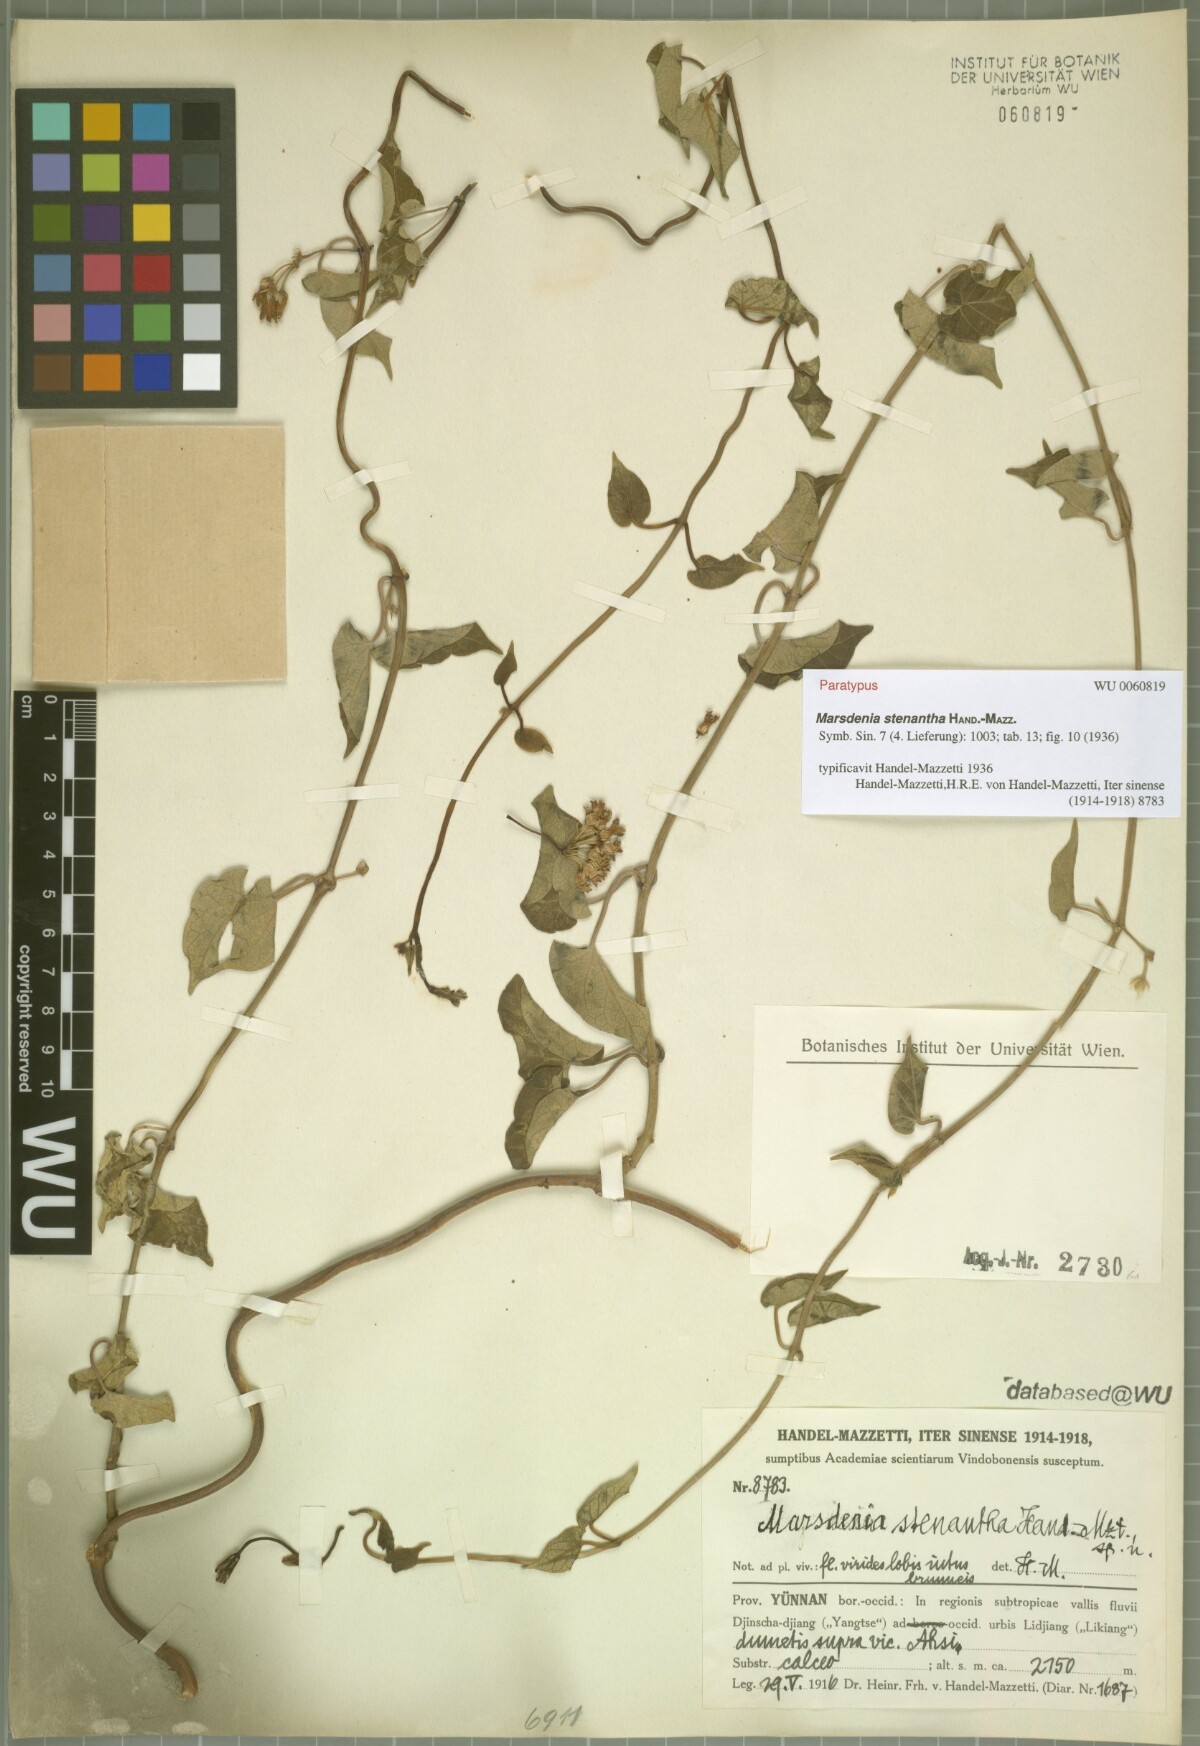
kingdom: Plantae
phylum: Tracheophyta
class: Magnoliopsida
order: Gentianales
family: Apocynaceae
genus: Stephanotis
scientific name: Stephanotis nana
